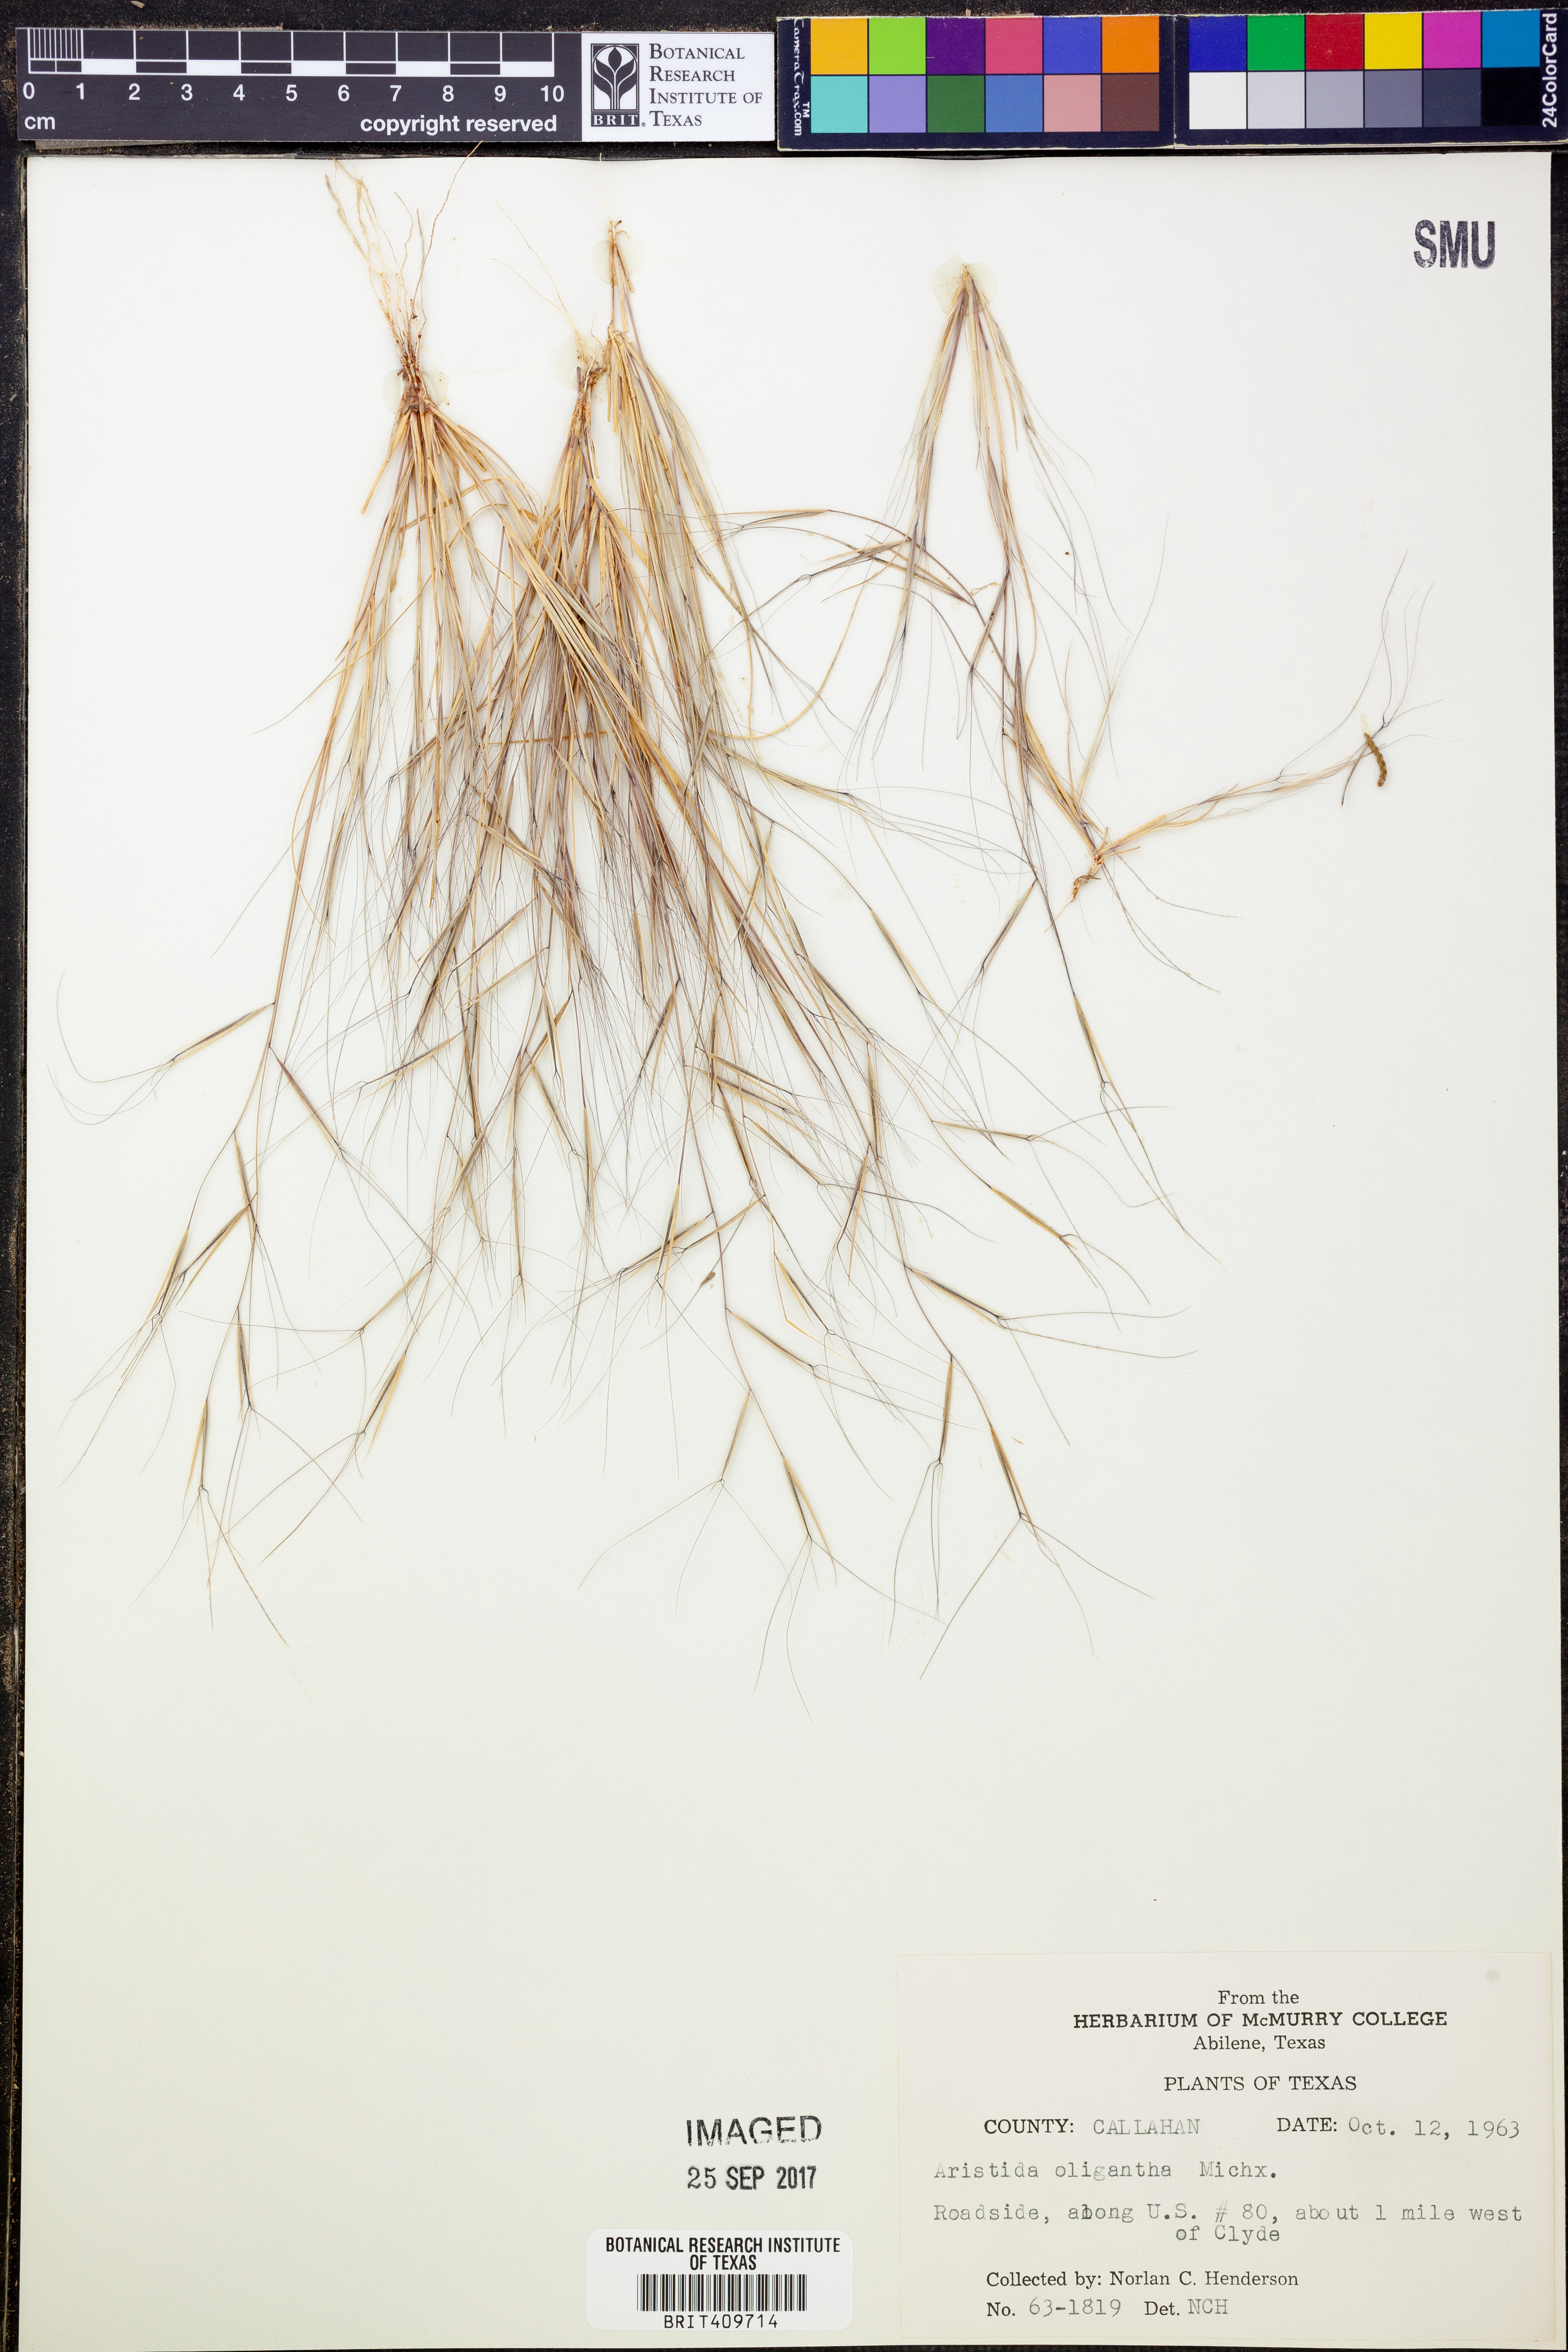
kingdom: Plantae
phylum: Tracheophyta
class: Liliopsida
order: Poales
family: Poaceae
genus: Aristida
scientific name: Aristida oligantha
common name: Few-flowered aristida
